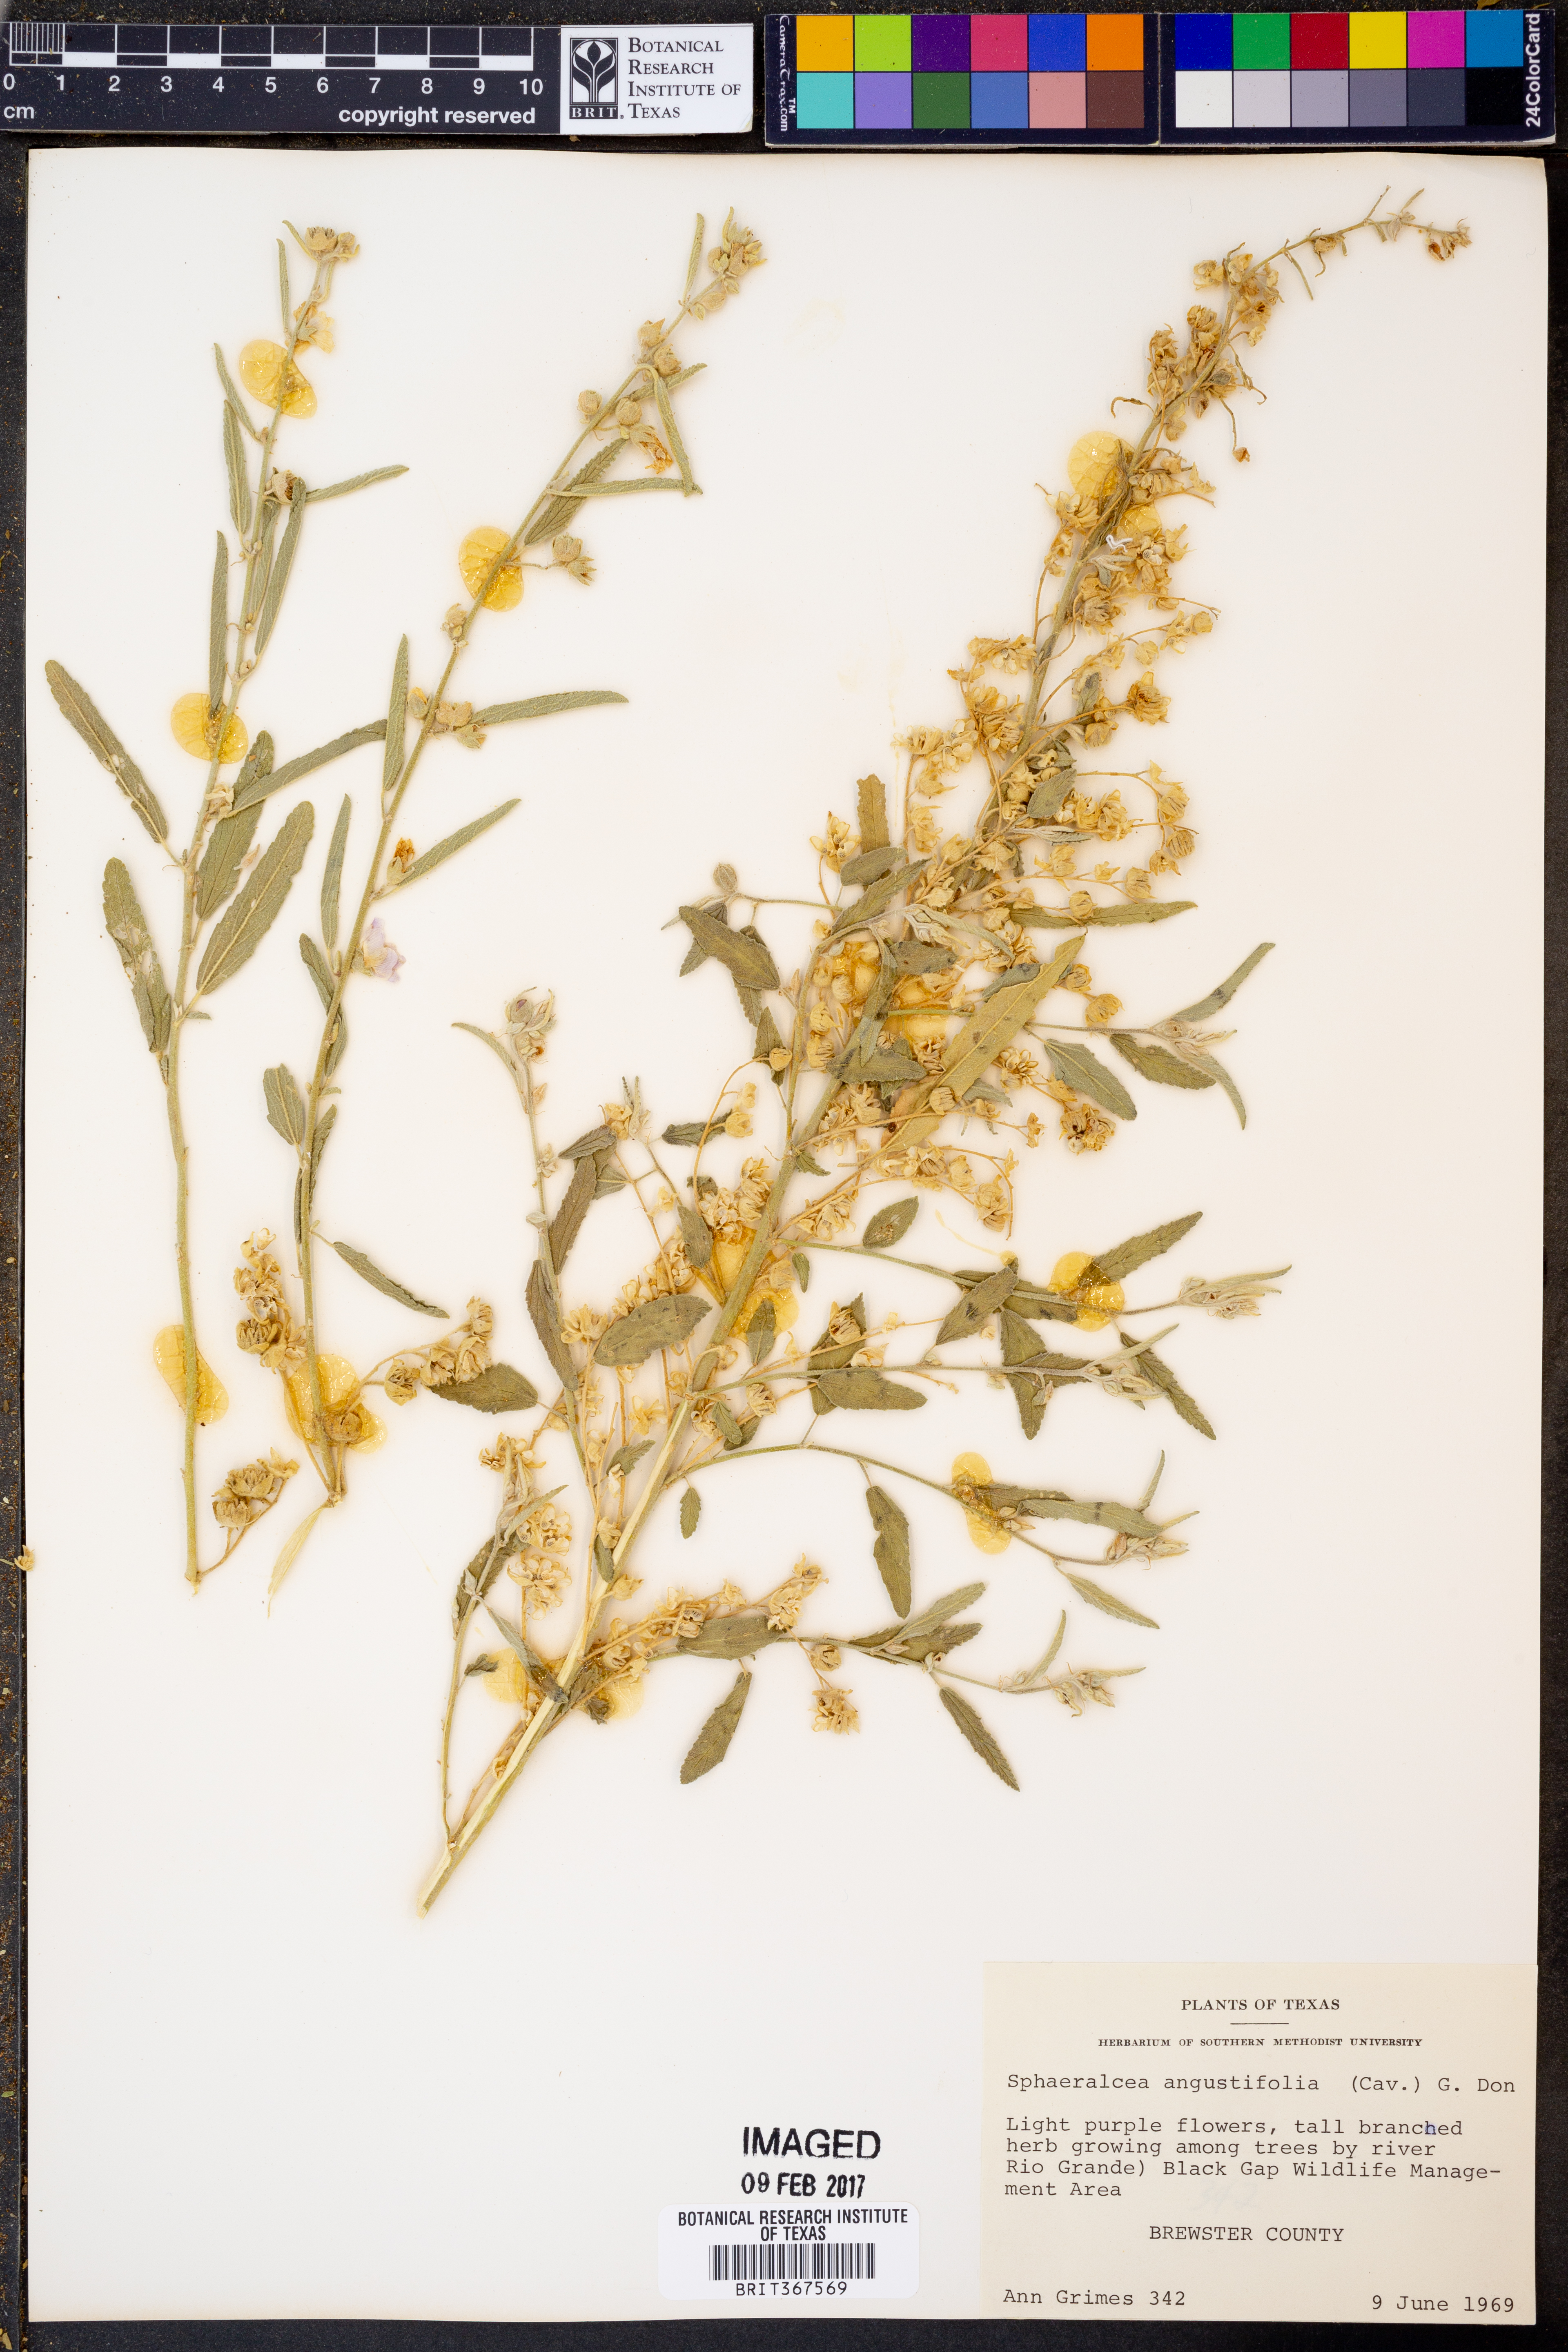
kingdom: Plantae
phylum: Tracheophyta
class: Magnoliopsida
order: Malvales
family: Malvaceae
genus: Sphaeralcea
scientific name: Sphaeralcea angustifolia
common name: Copper globe-mallow
